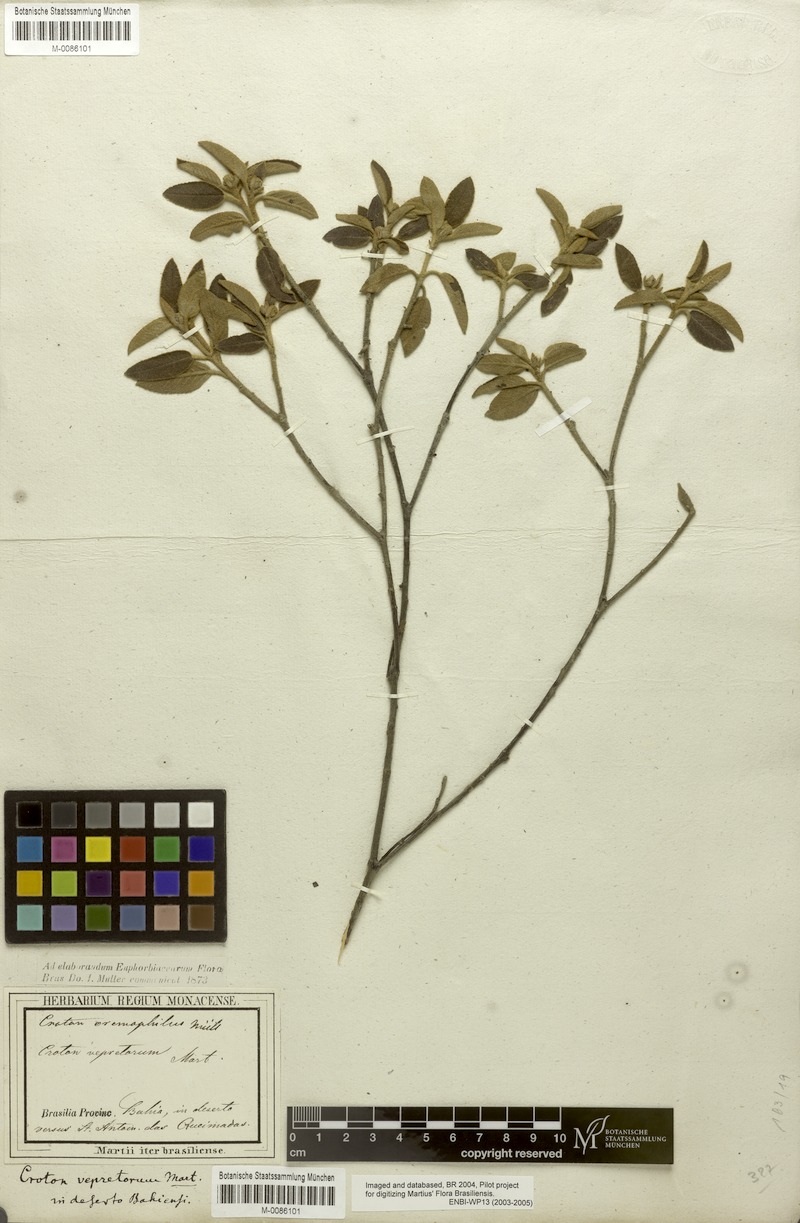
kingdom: Plantae
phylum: Tracheophyta
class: Magnoliopsida
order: Malpighiales
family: Euphorbiaceae
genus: Croton
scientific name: Croton eremophilus
